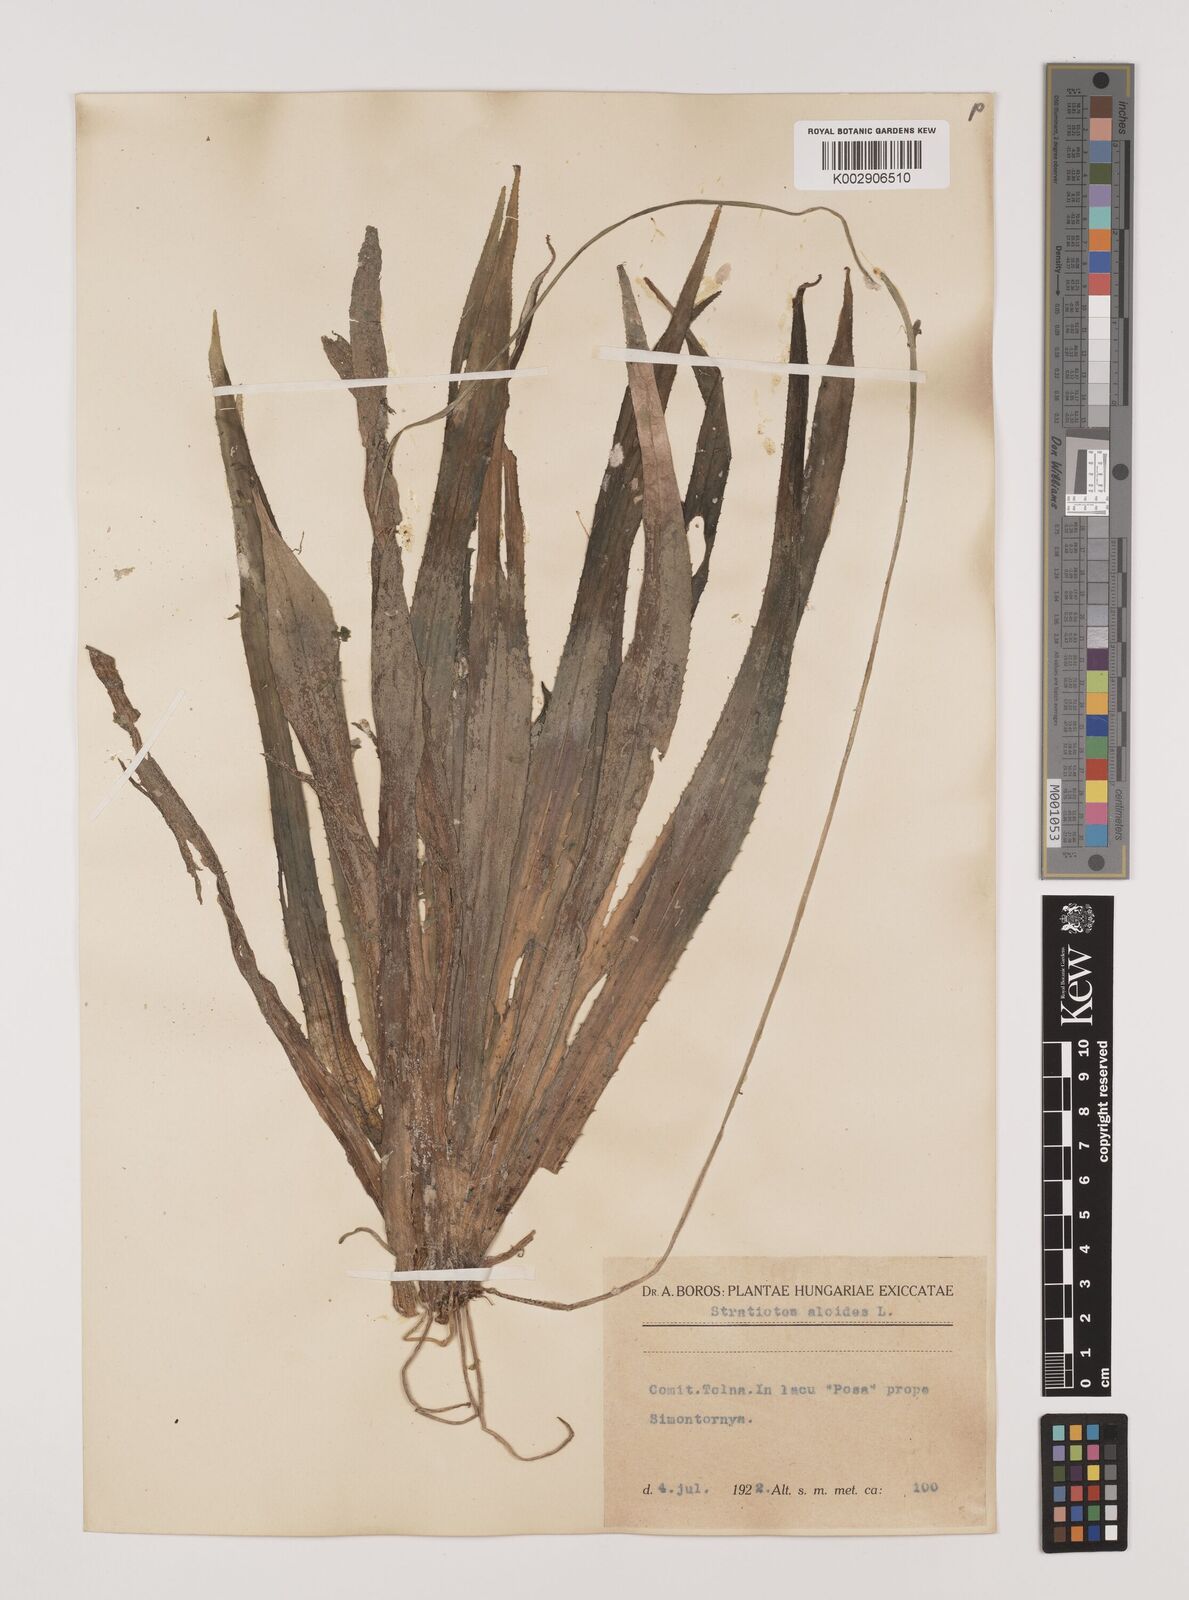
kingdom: Plantae
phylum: Tracheophyta
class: Liliopsida
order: Alismatales
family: Hydrocharitaceae
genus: Stratiotes
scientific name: Stratiotes aloides
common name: Water-soldier
